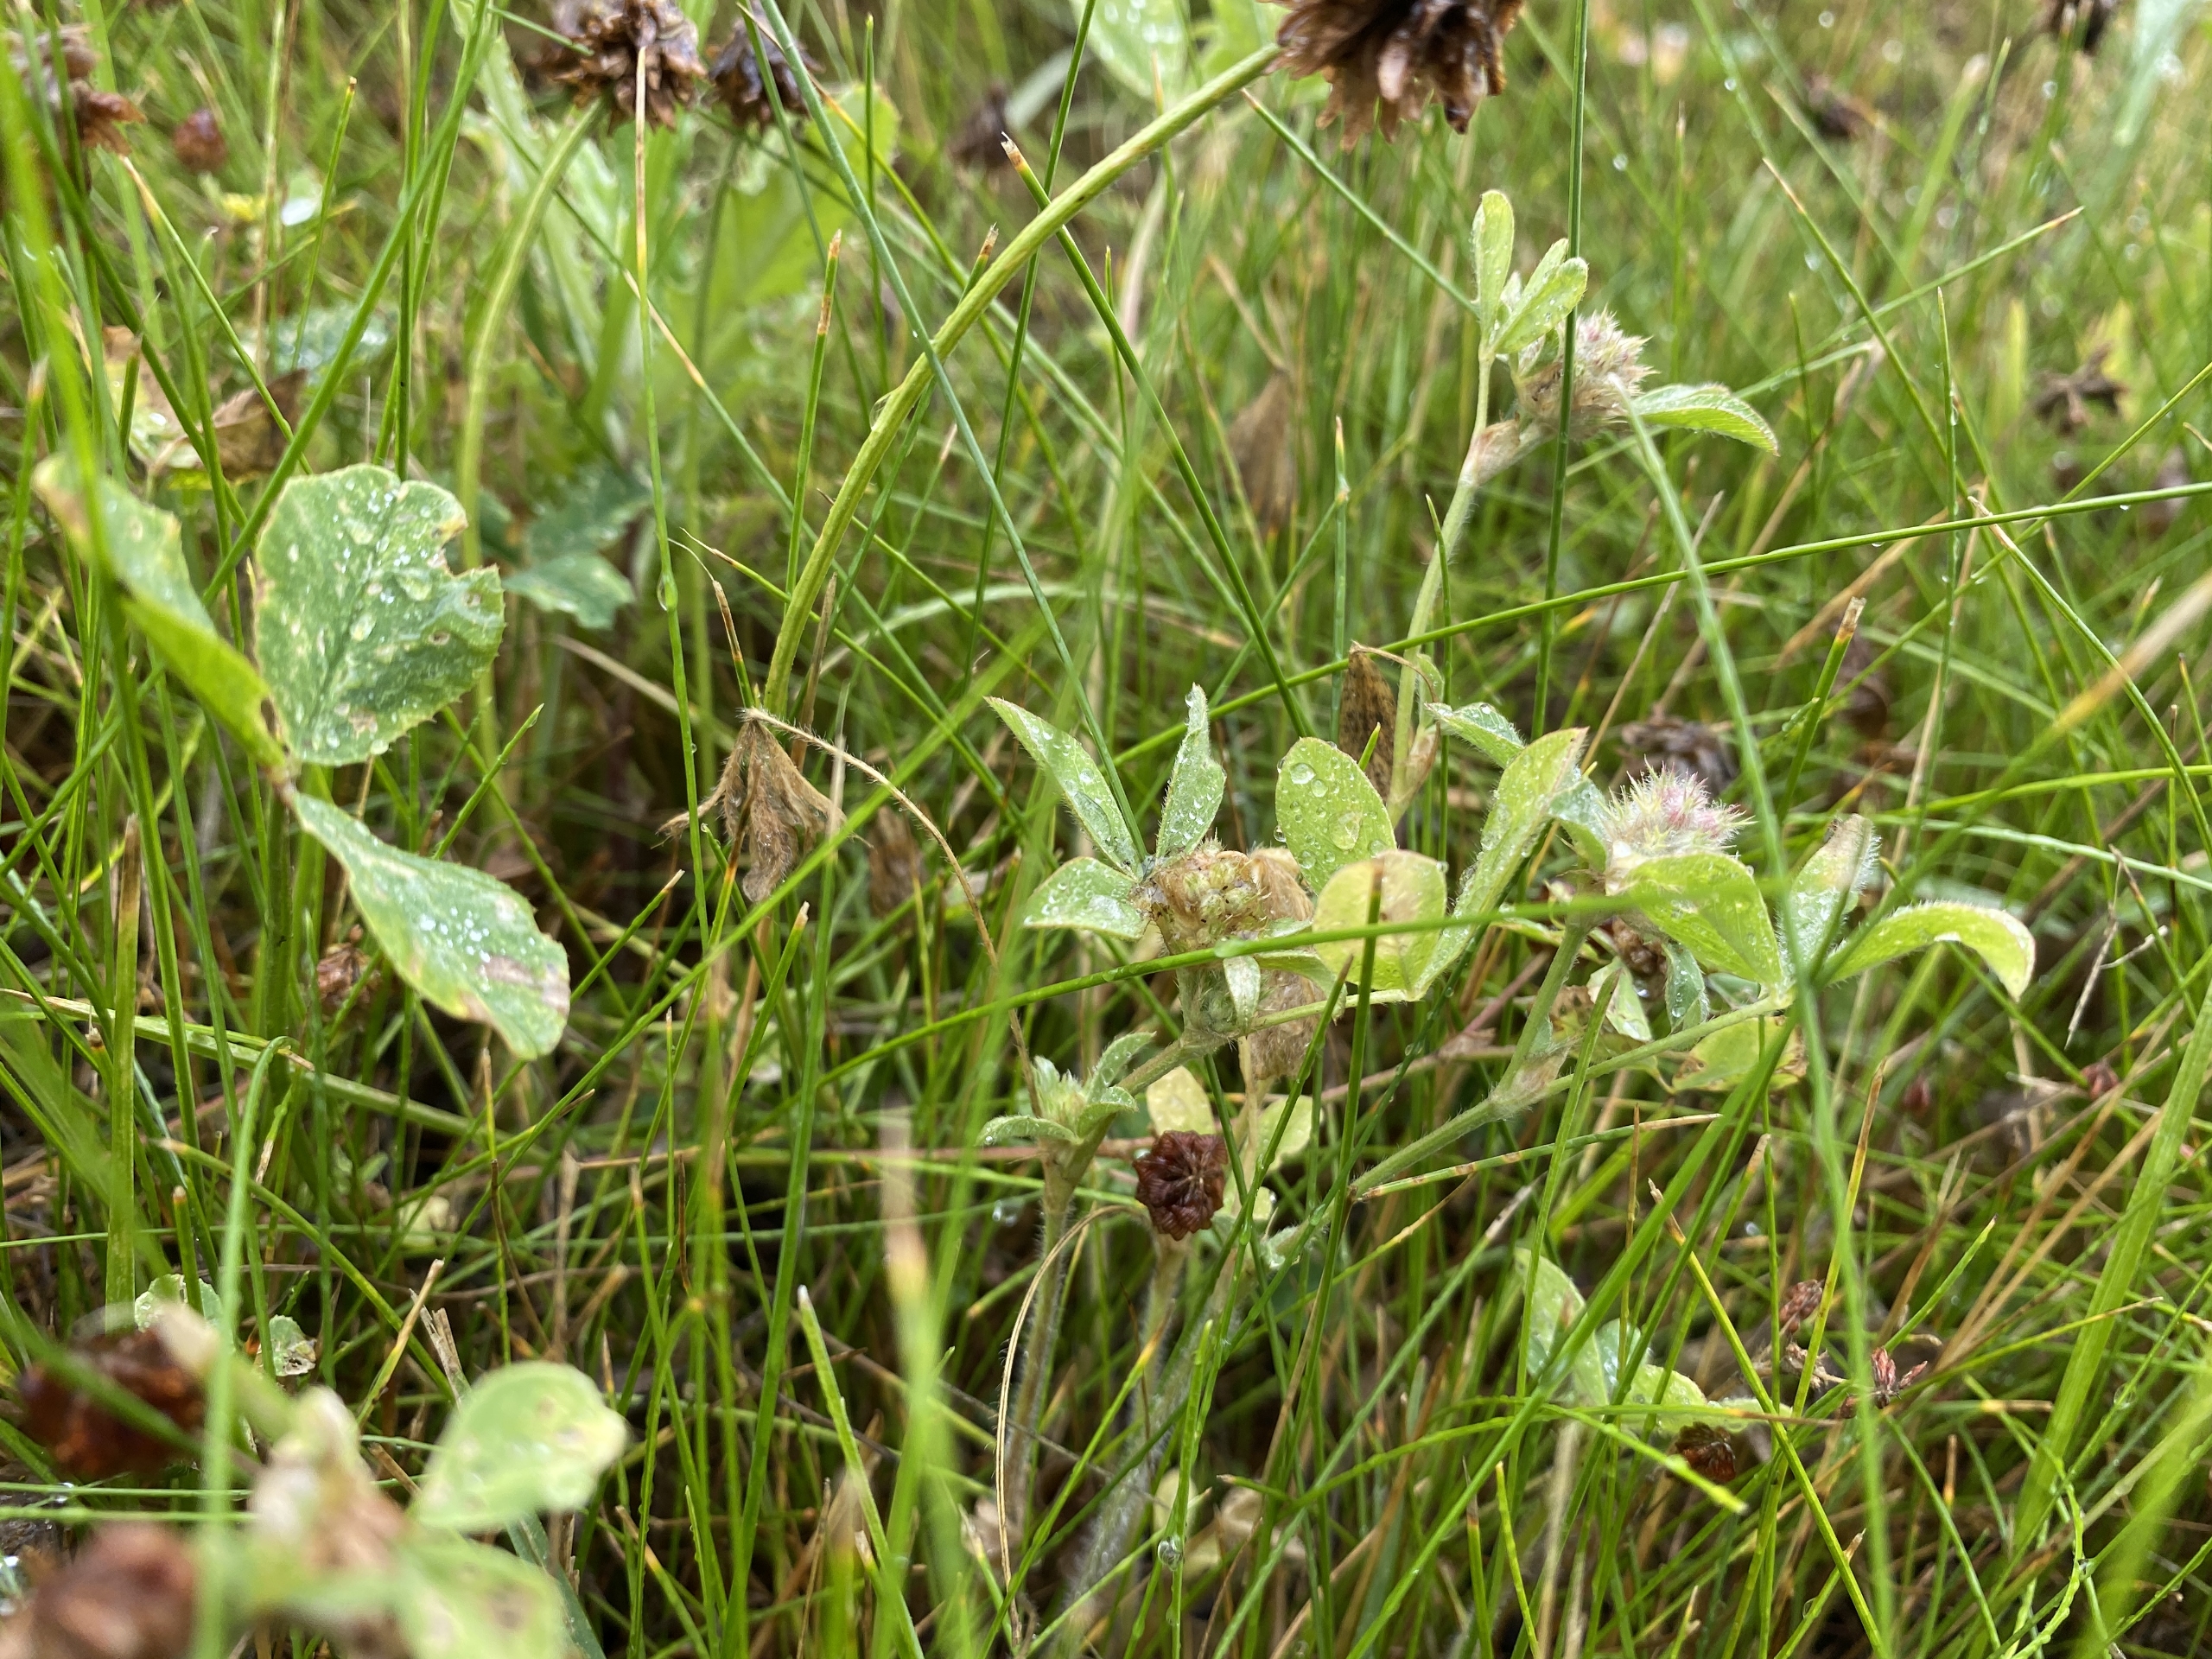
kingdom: Plantae
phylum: Tracheophyta
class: Magnoliopsida
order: Fabales
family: Fabaceae
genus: Trifolium
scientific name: Trifolium pratense
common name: Rød-kløver
